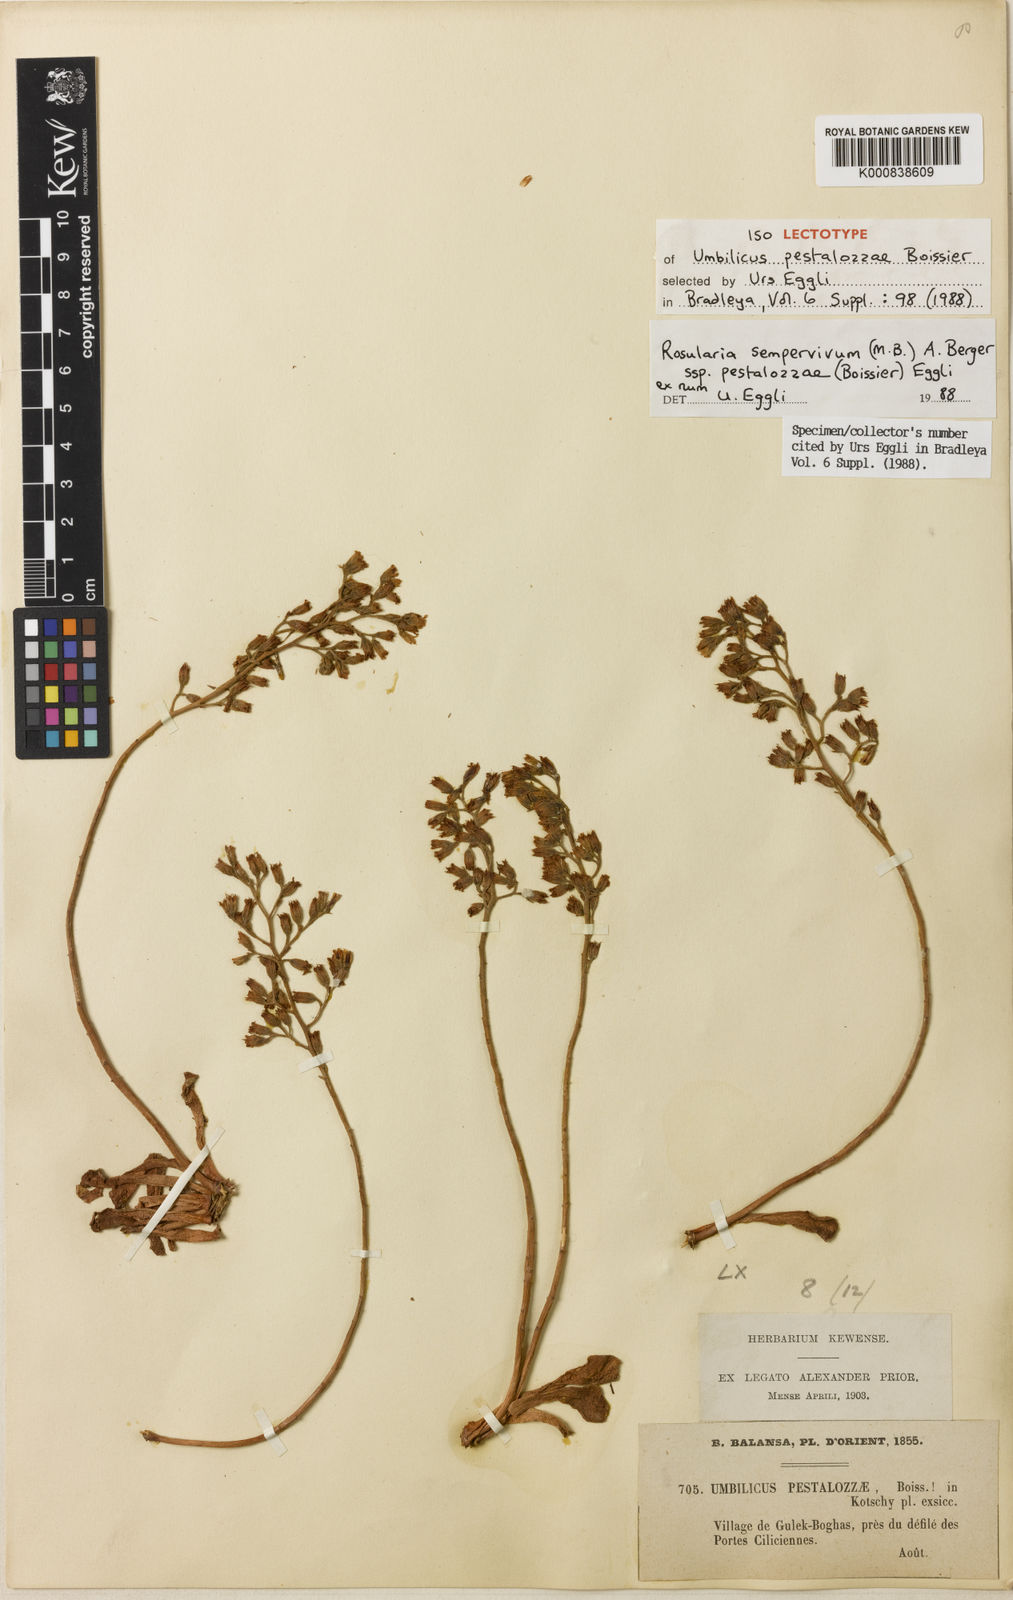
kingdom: Plantae
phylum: Tracheophyta
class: Magnoliopsida
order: Saxifragales
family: Crassulaceae
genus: Rosularia
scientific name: Rosularia sempervivum
